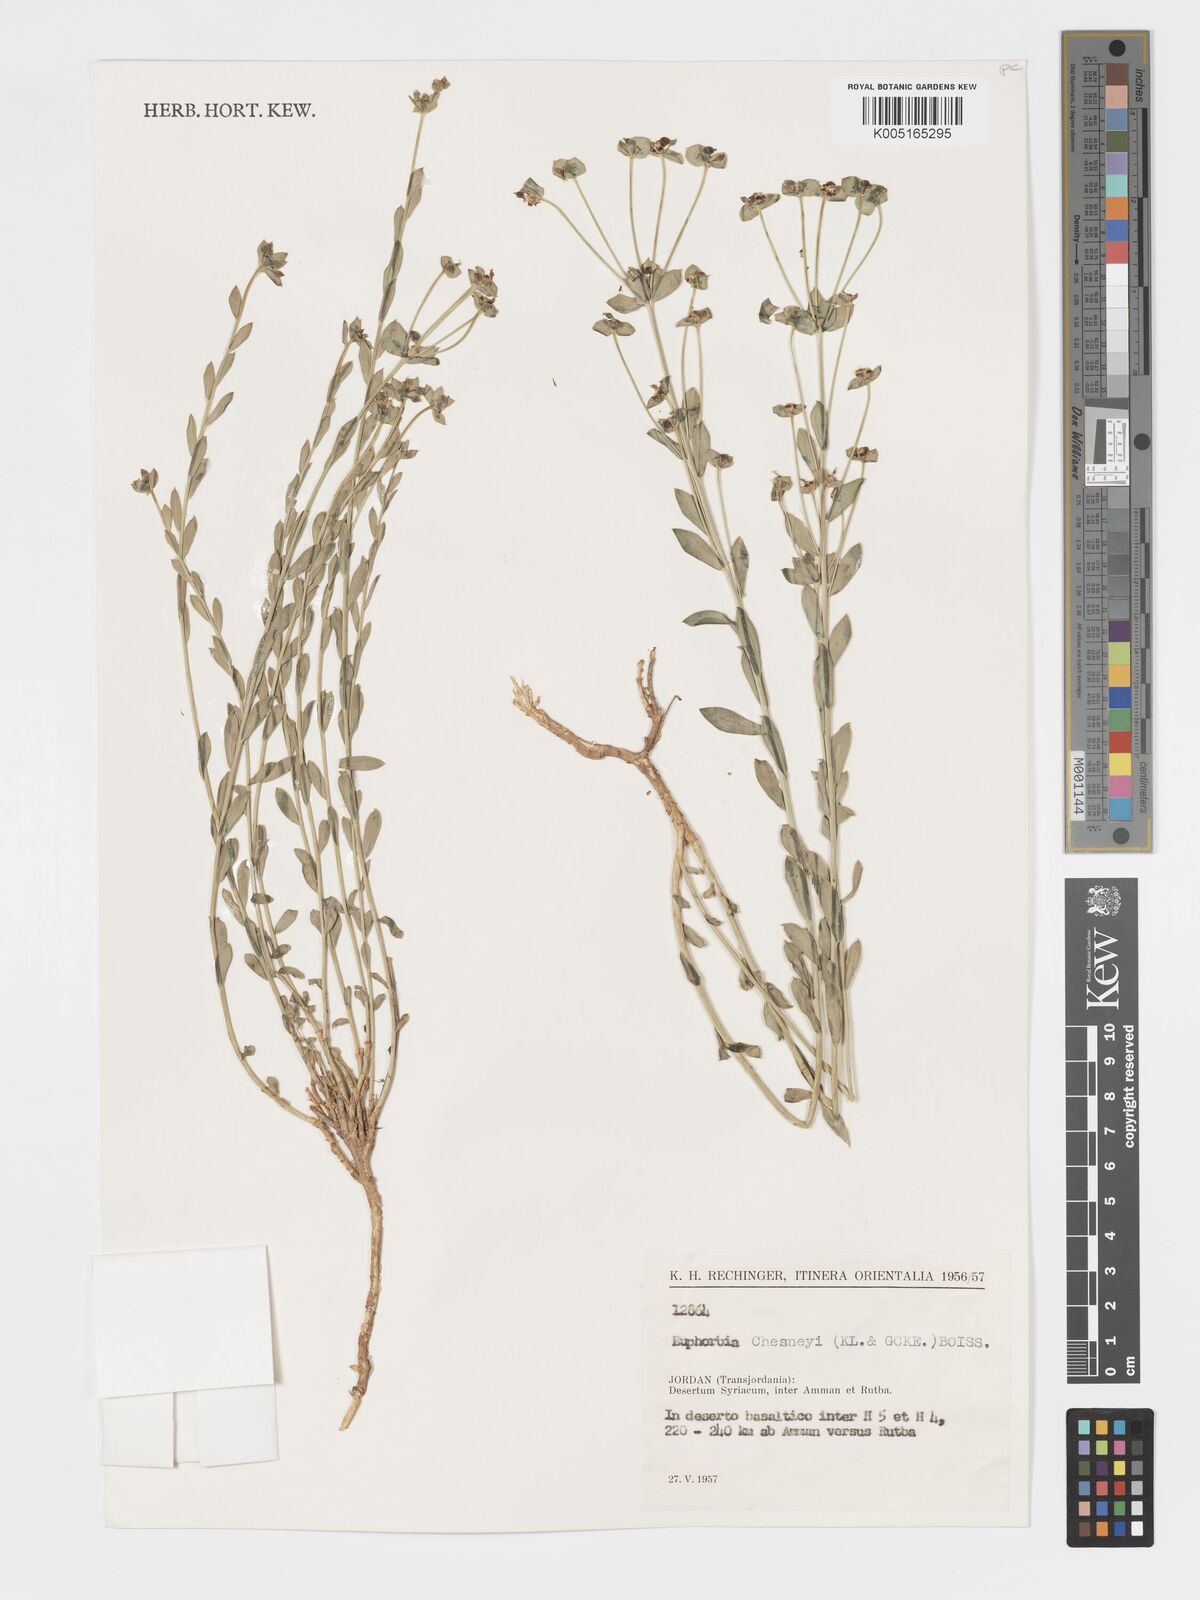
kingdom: Plantae
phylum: Tracheophyta
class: Magnoliopsida
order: Malpighiales
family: Euphorbiaceae
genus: Euphorbia
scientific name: Euphorbia
